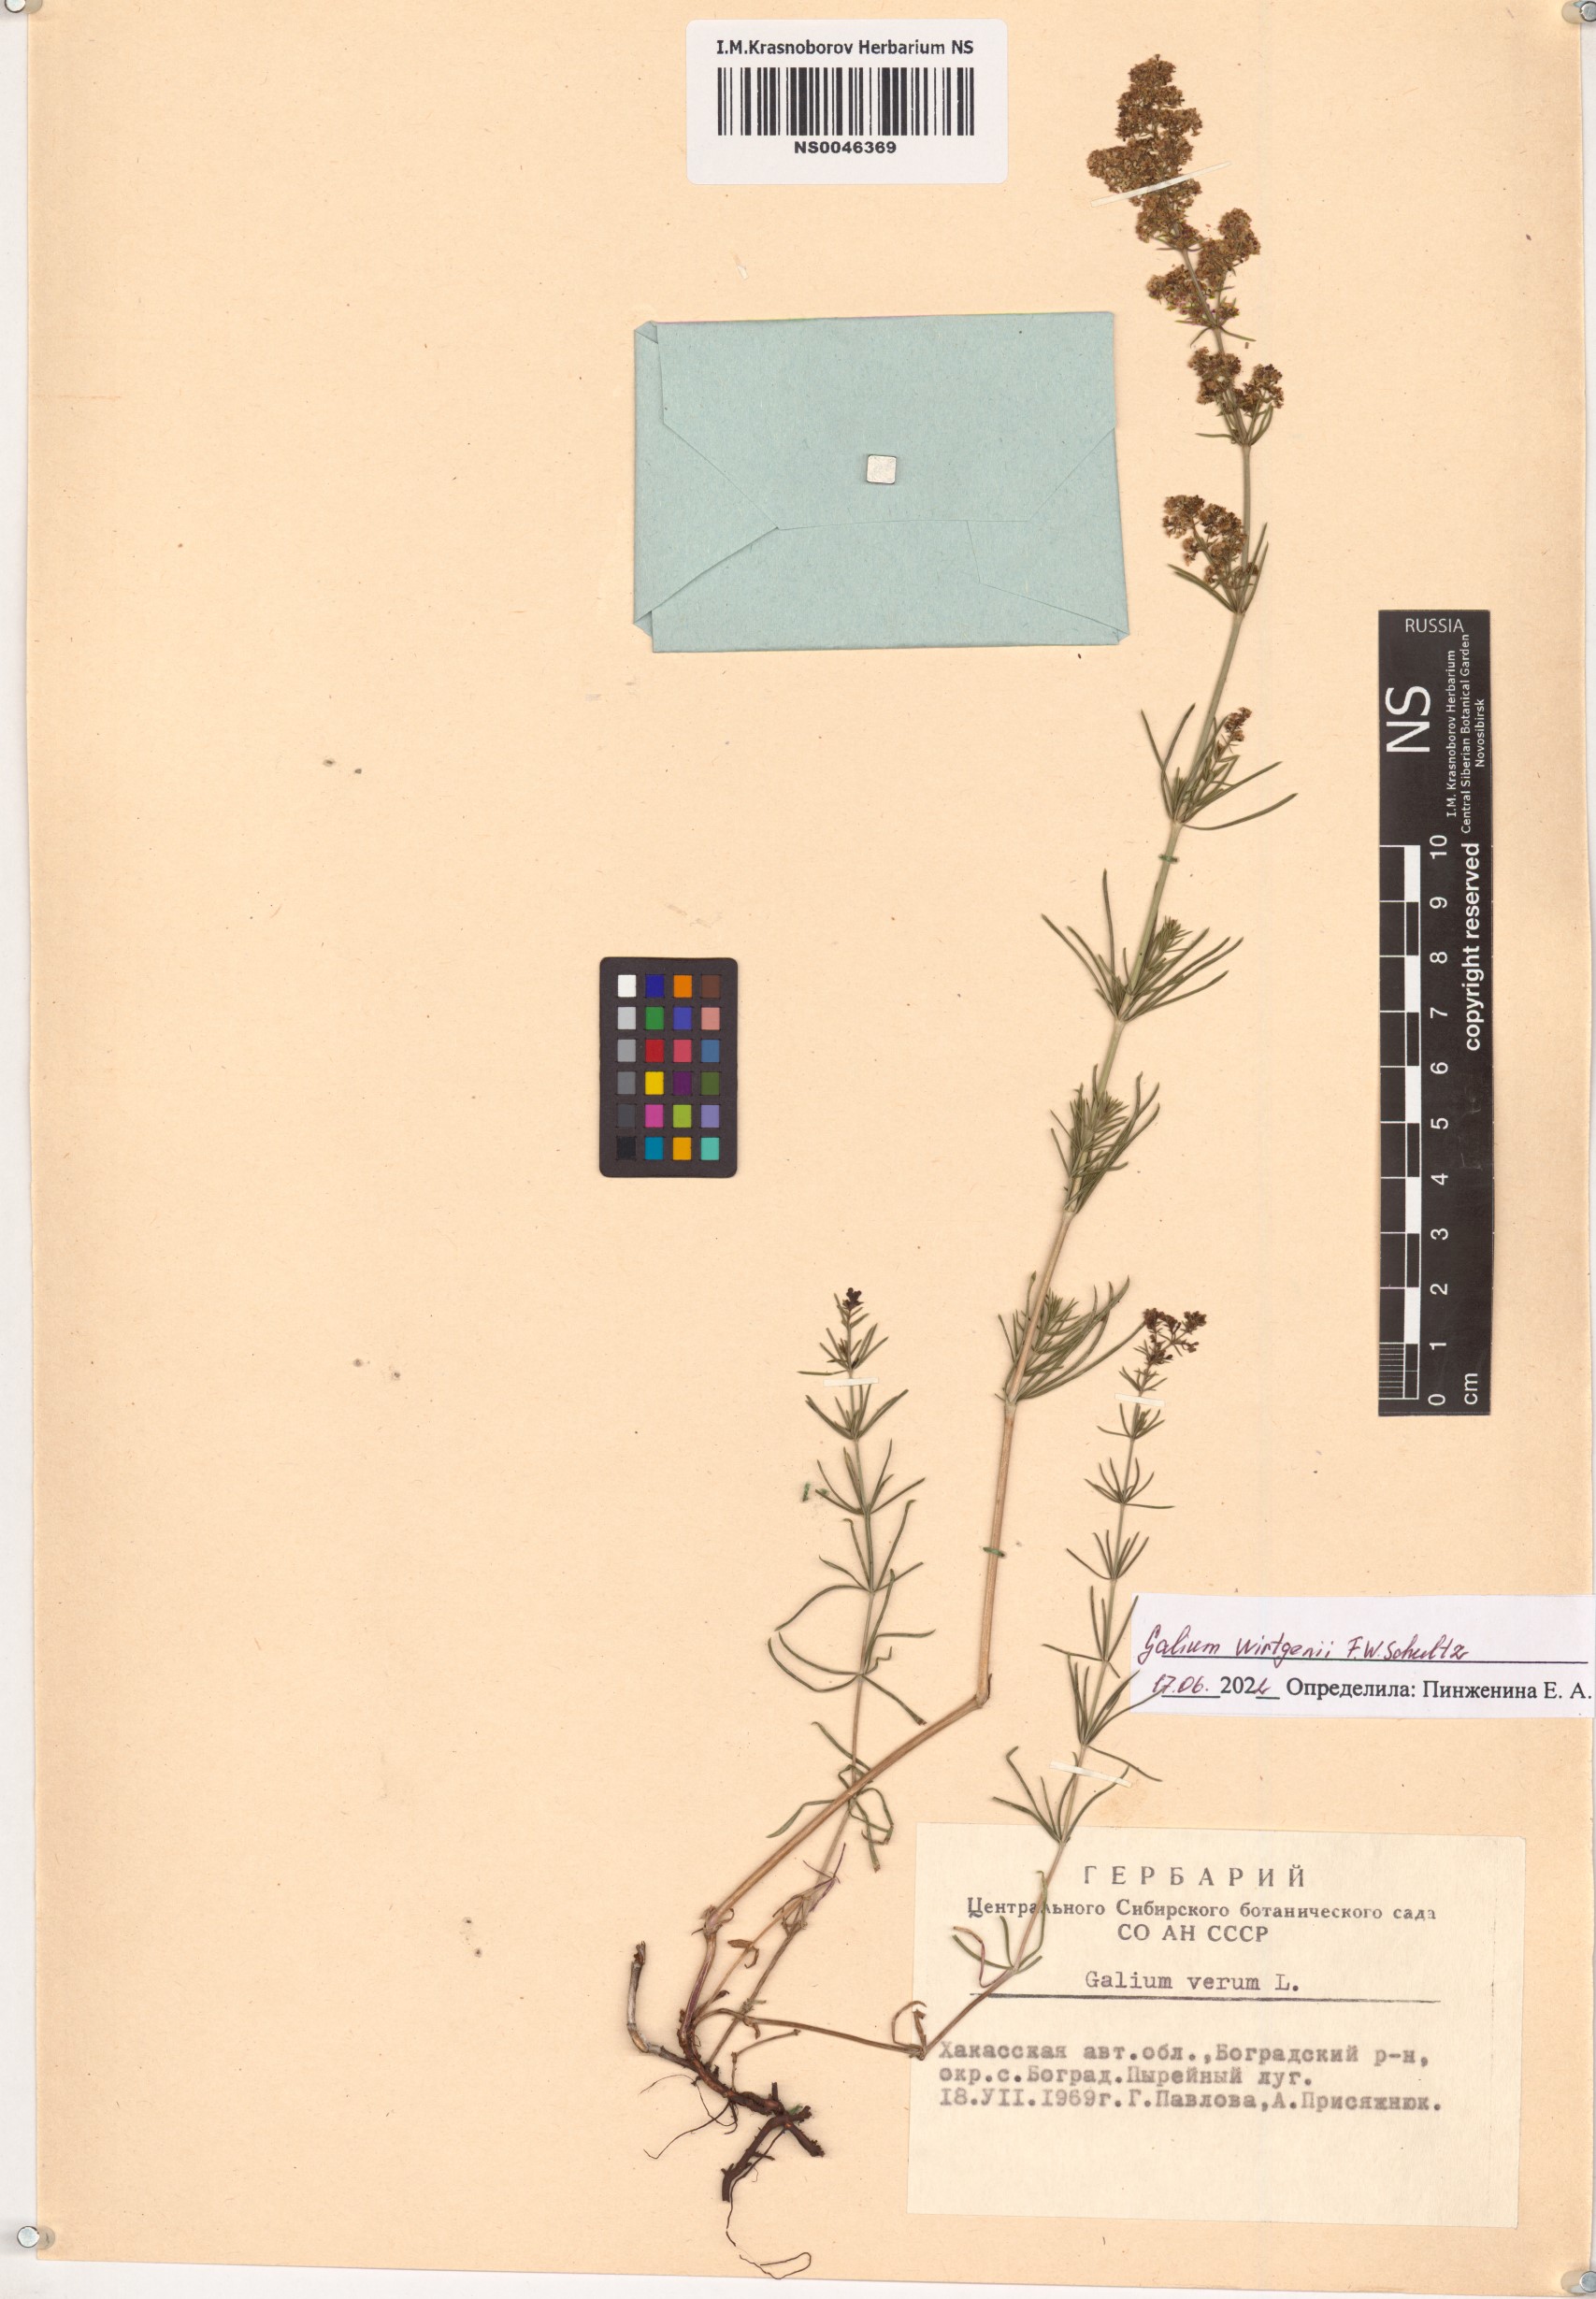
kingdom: Plantae
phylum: Tracheophyta
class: Magnoliopsida
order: Gentianales
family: Rubiaceae
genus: Galium
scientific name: Galium verum
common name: Lady's bedstraw
